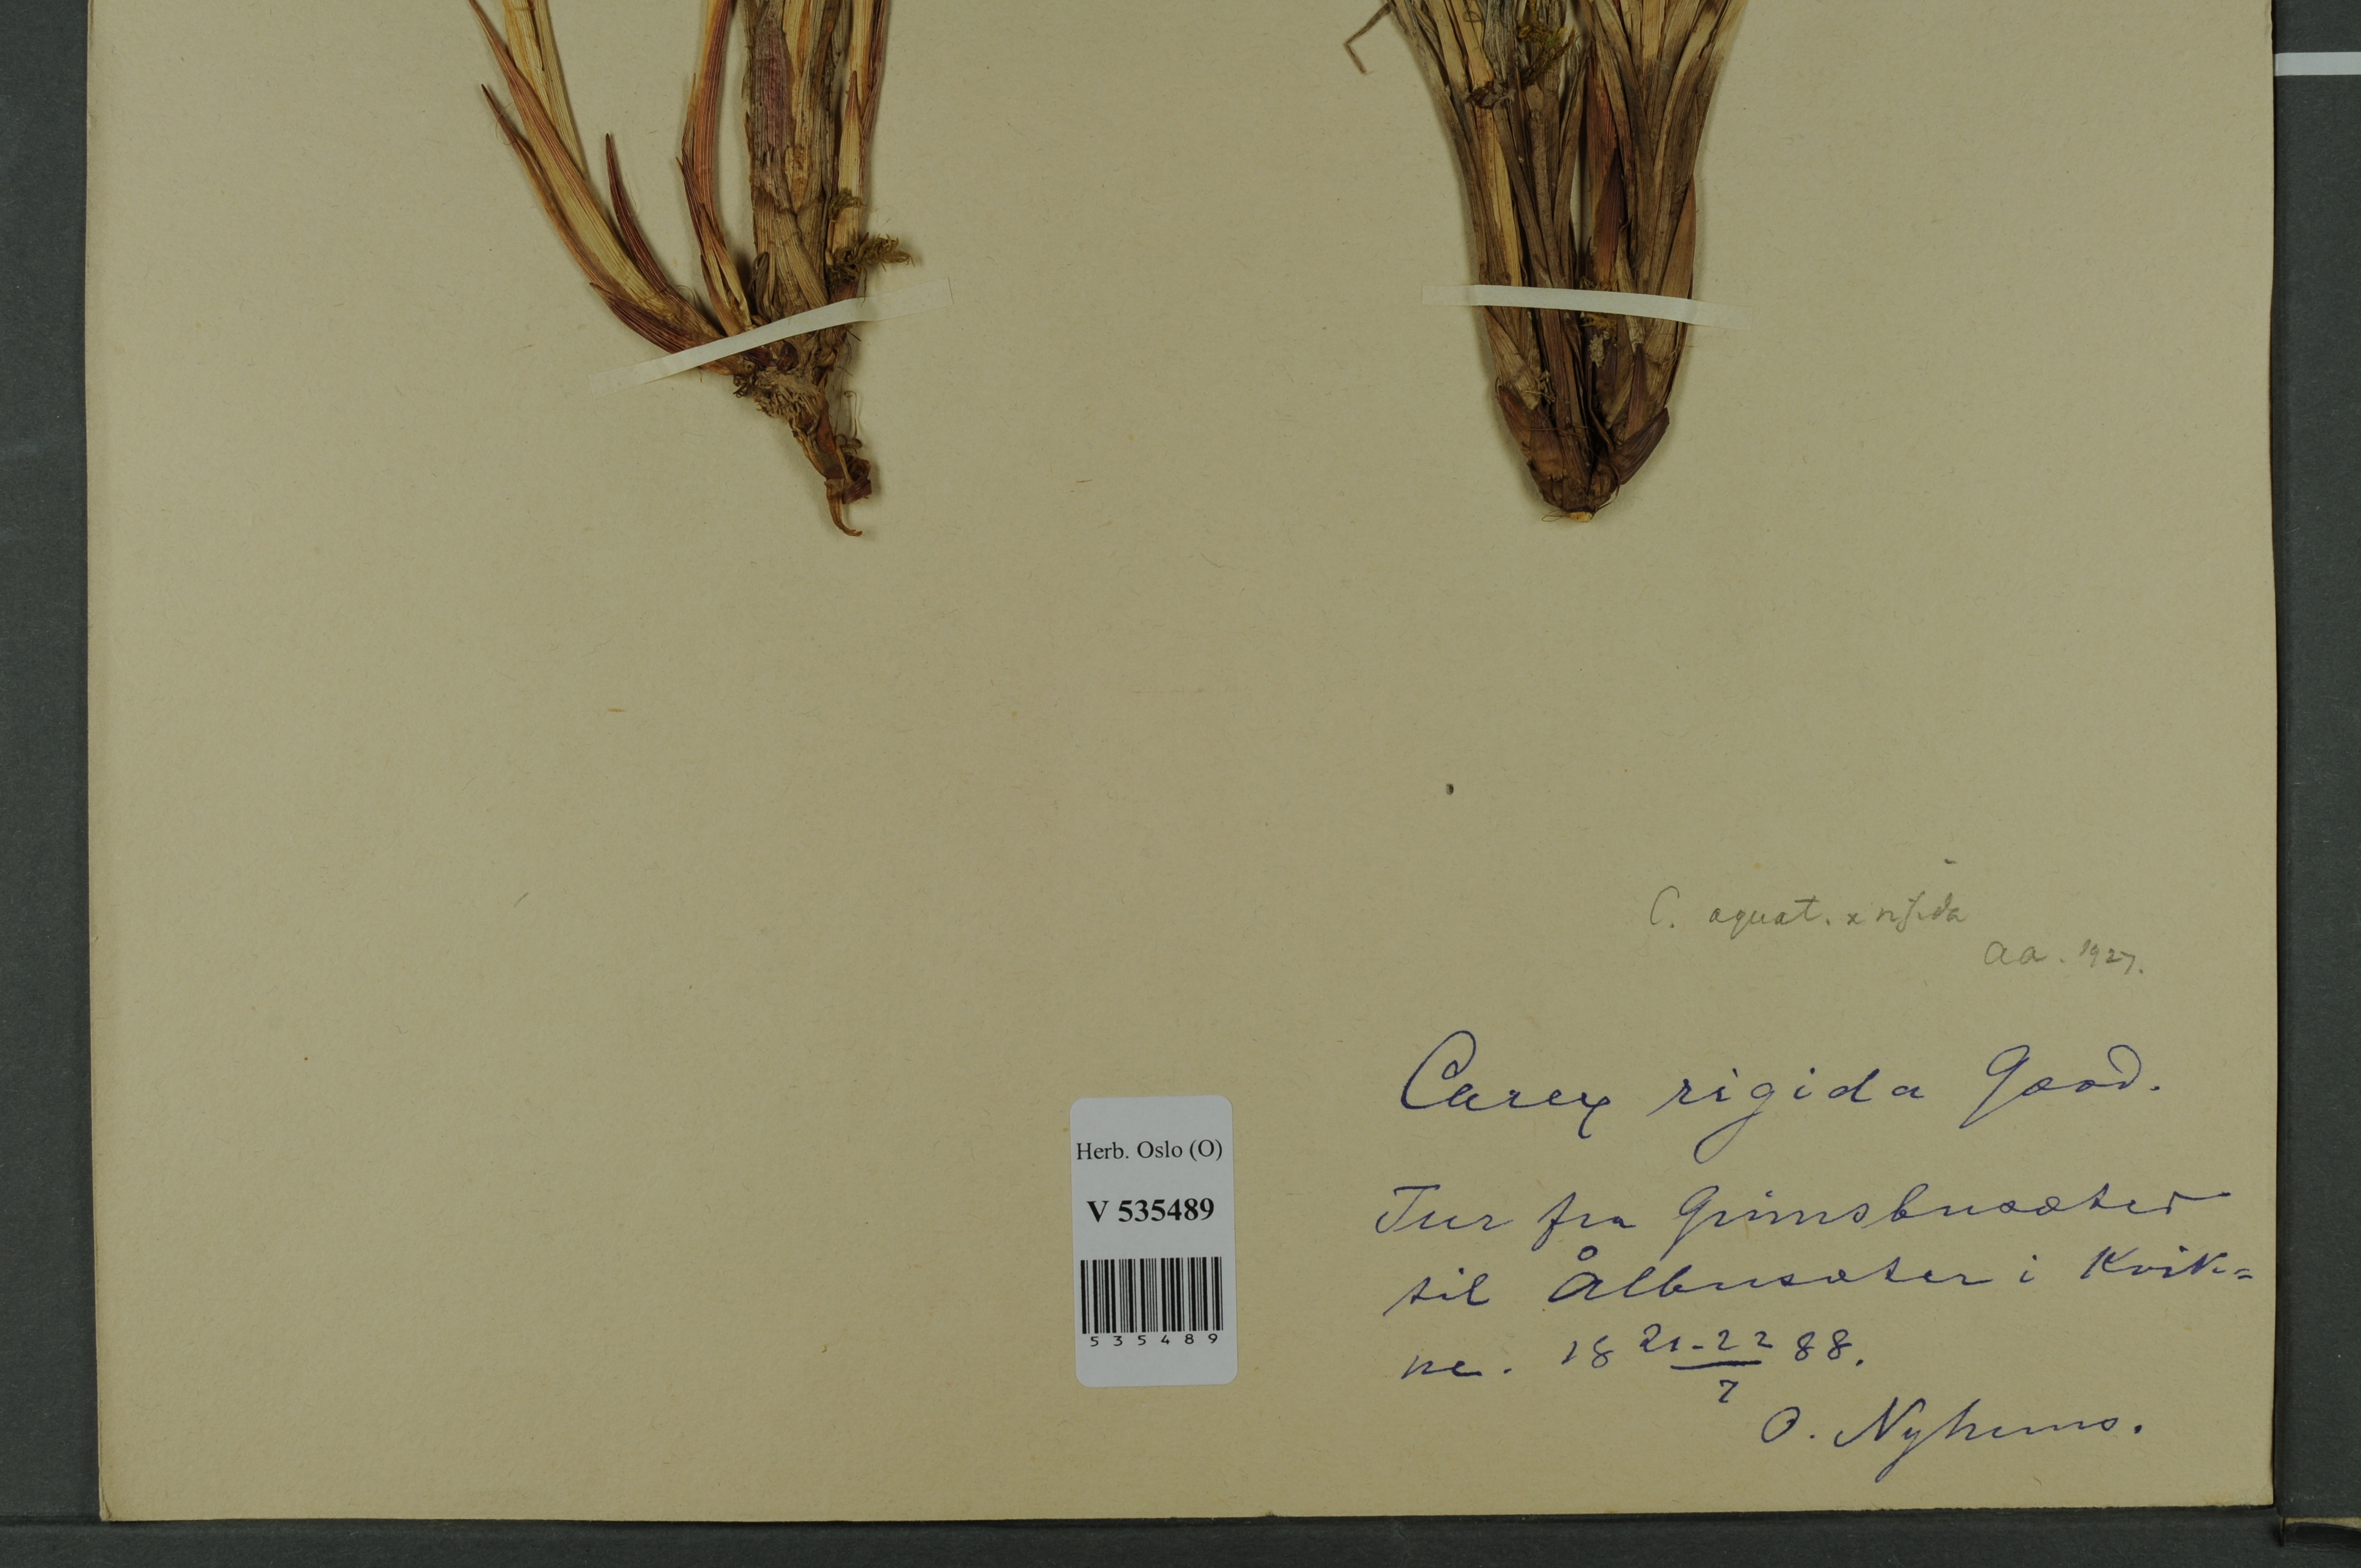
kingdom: Plantae
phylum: Tracheophyta
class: Liliopsida
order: Poales
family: Cyperaceae
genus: Carex
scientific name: Carex
